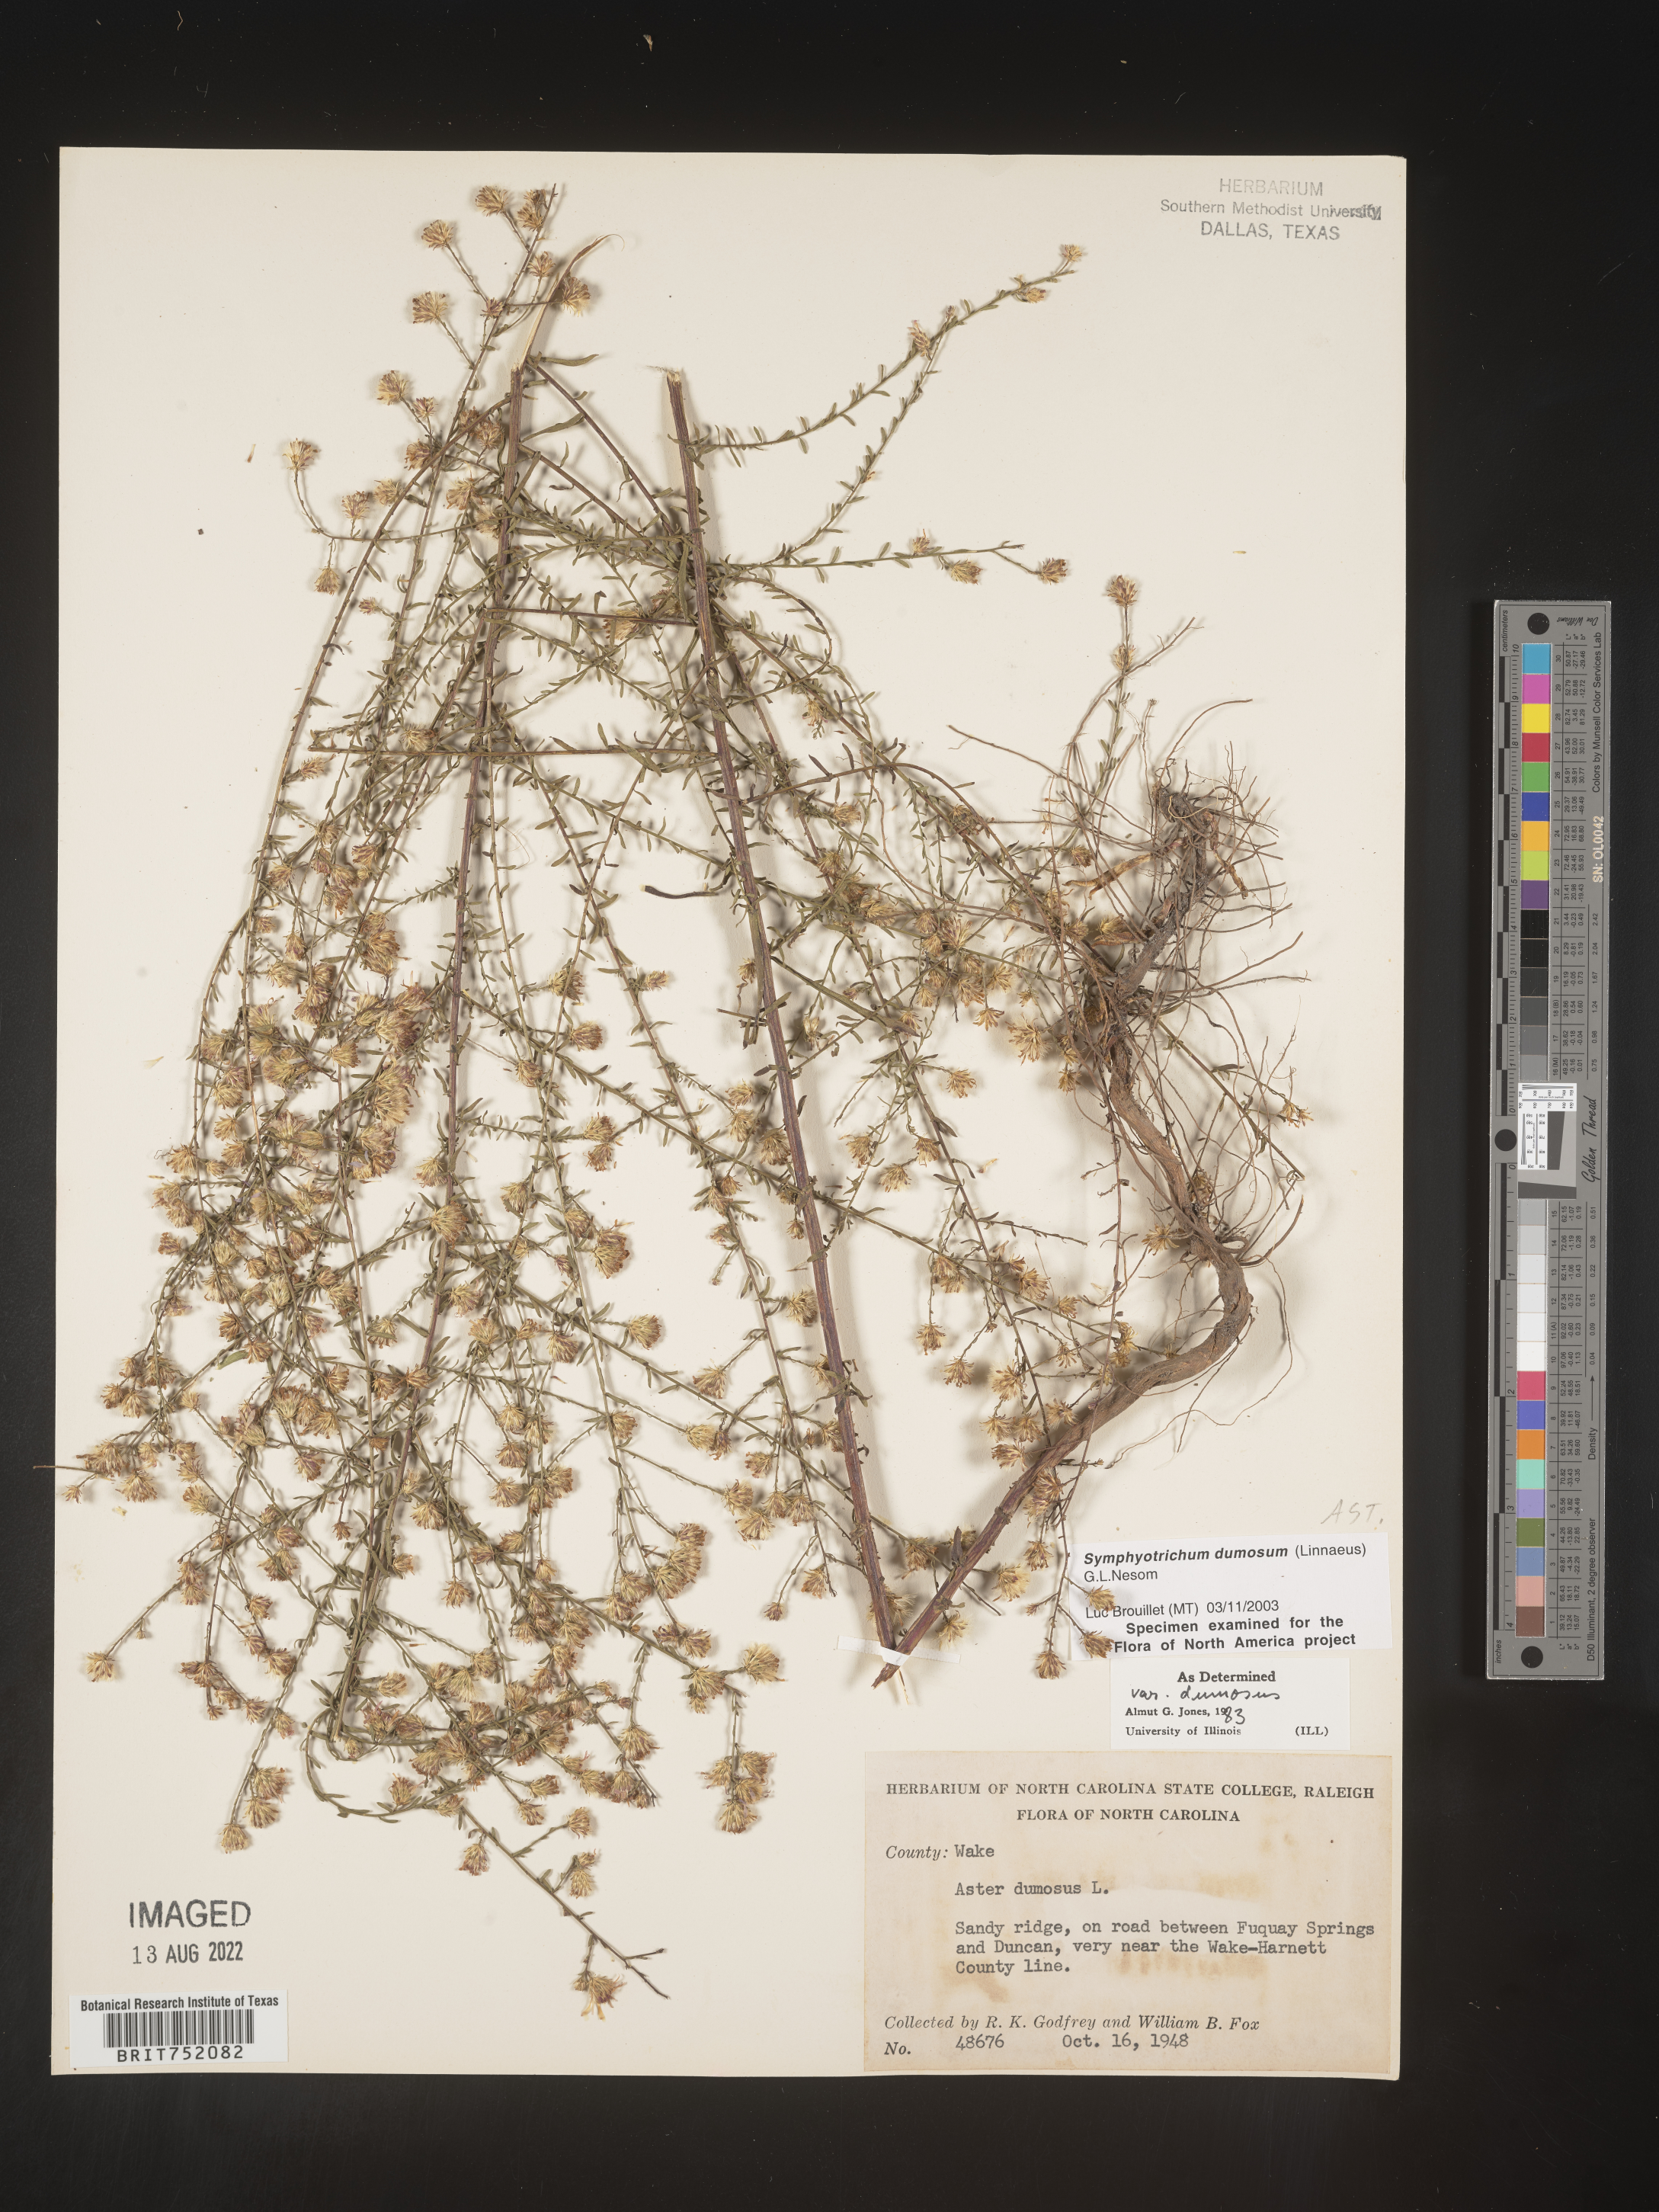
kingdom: Plantae
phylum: Tracheophyta
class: Magnoliopsida
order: Asterales
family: Asteraceae
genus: Symphyotrichum
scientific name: Symphyotrichum dumosum
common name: Bushy aster
